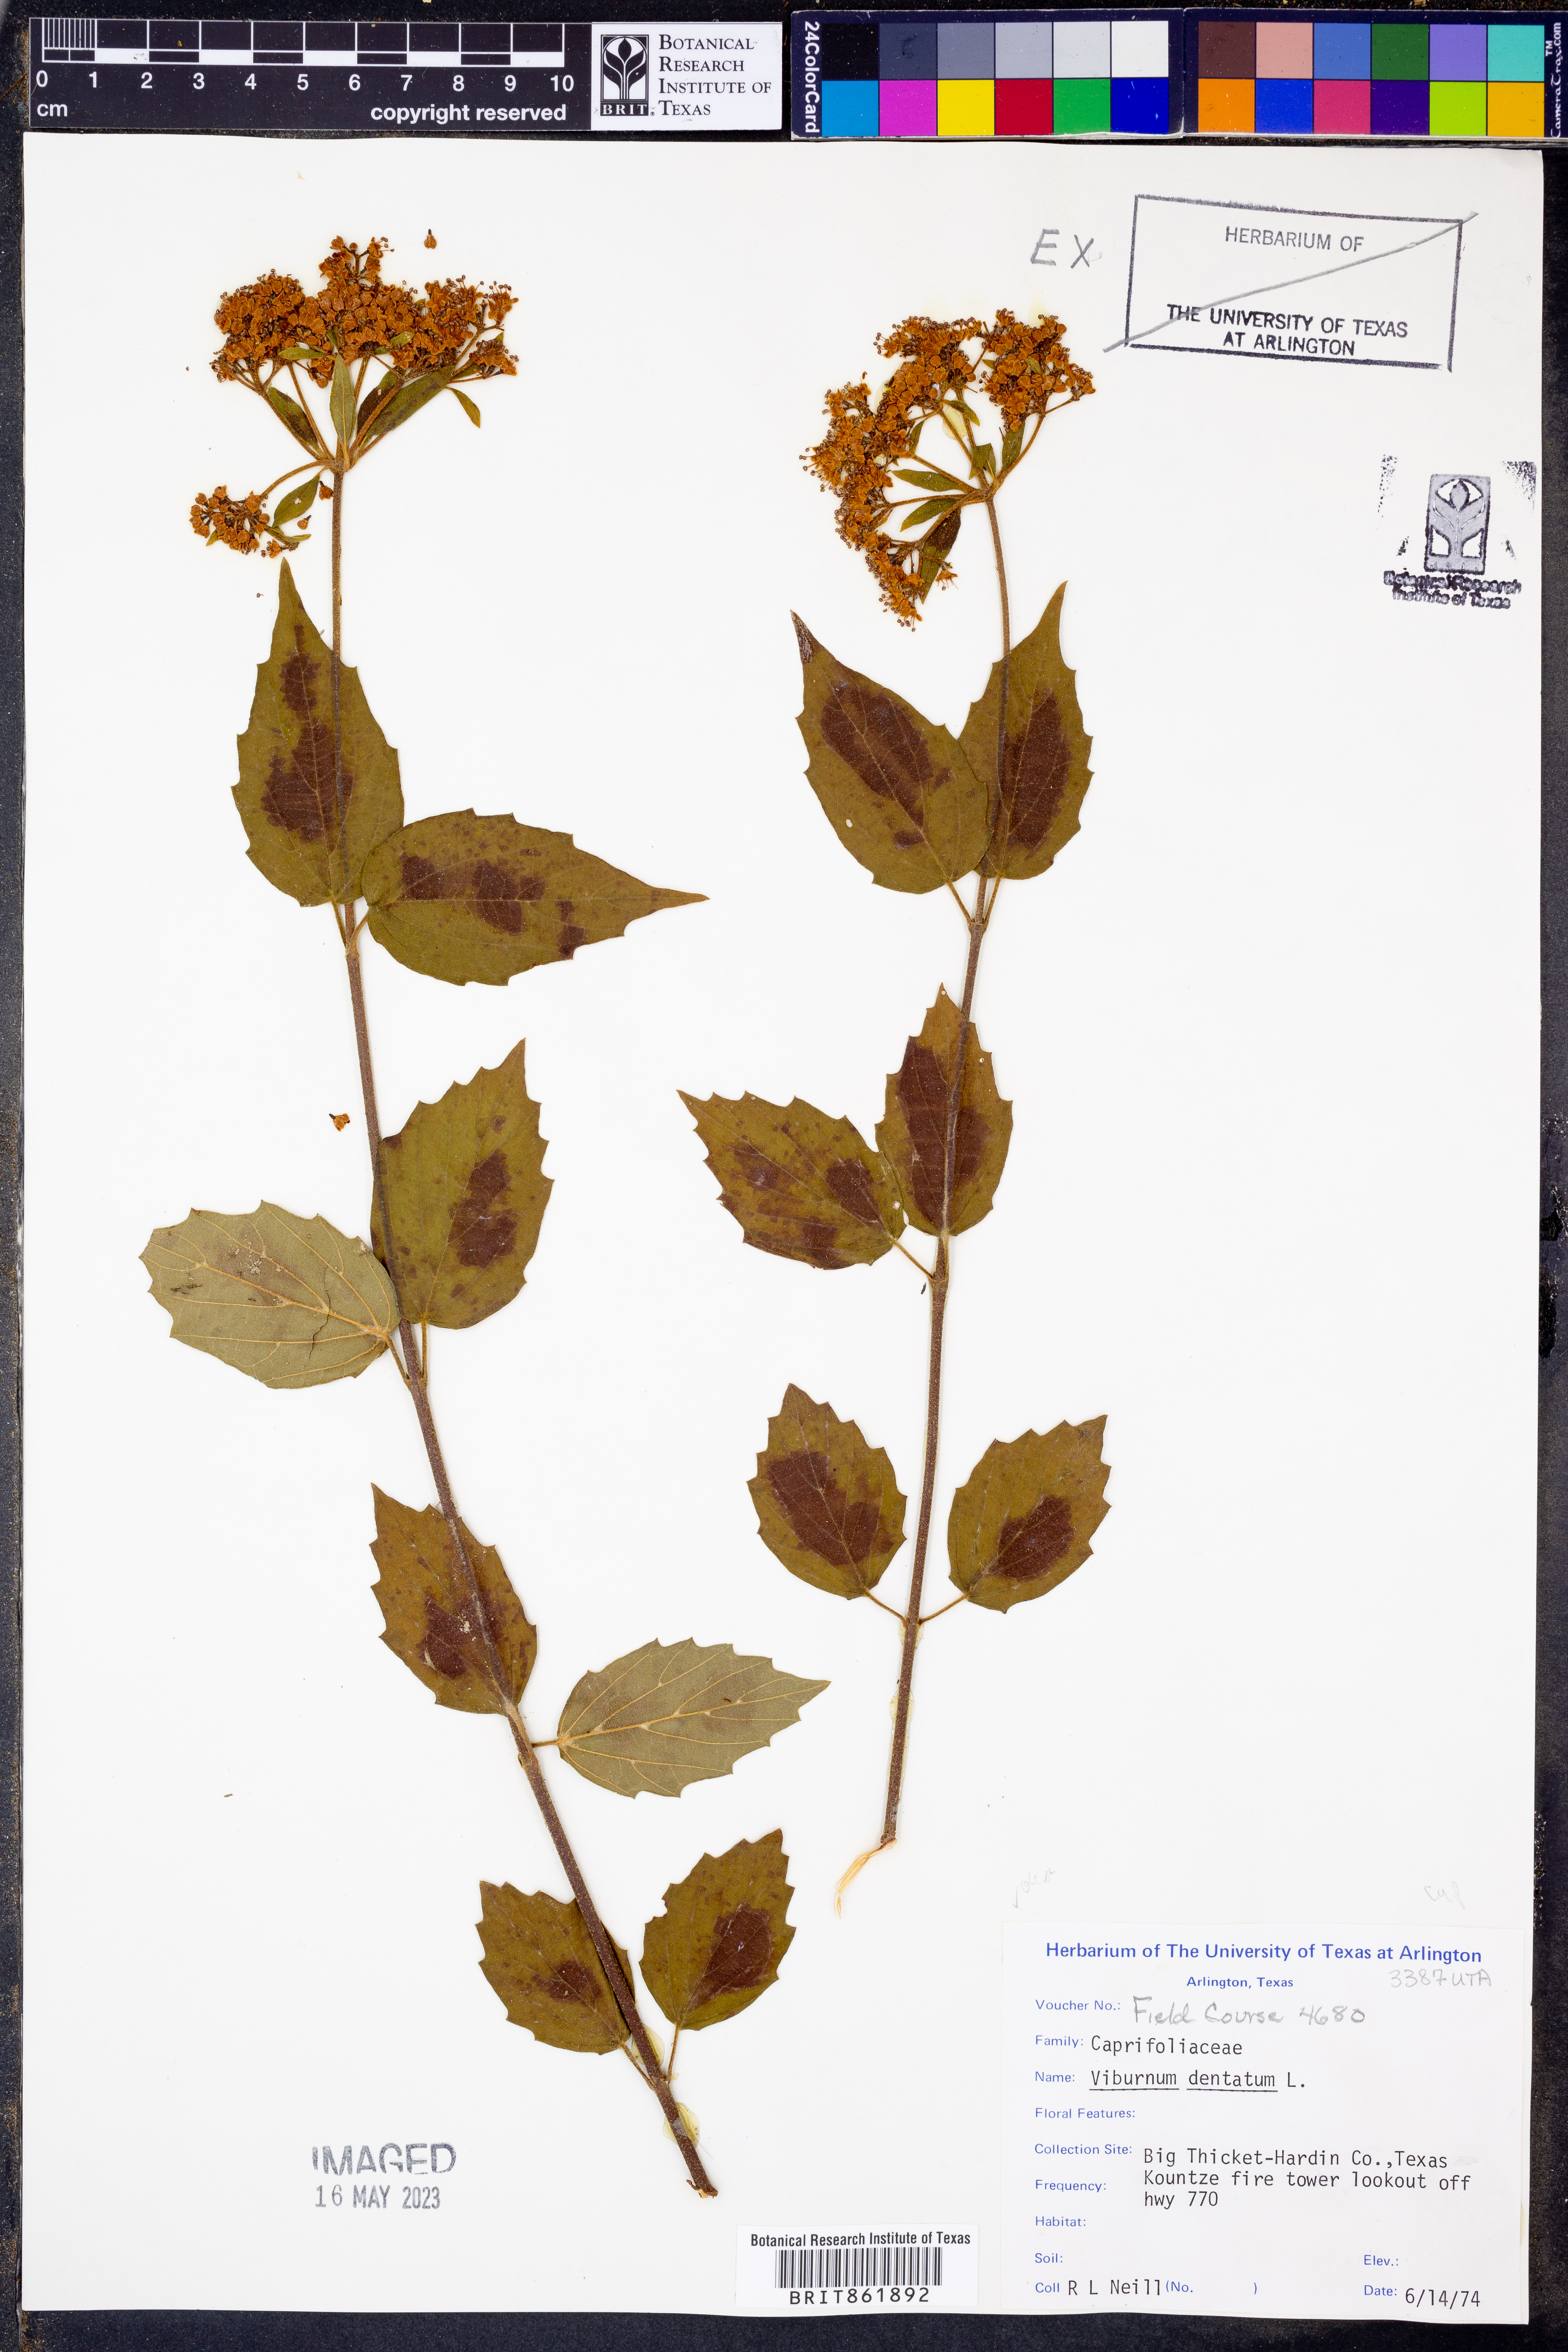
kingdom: Plantae
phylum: Tracheophyta
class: Magnoliopsida
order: Dipsacales
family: Viburnaceae
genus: Viburnum
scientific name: Viburnum dentatum
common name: Arrow-wood
